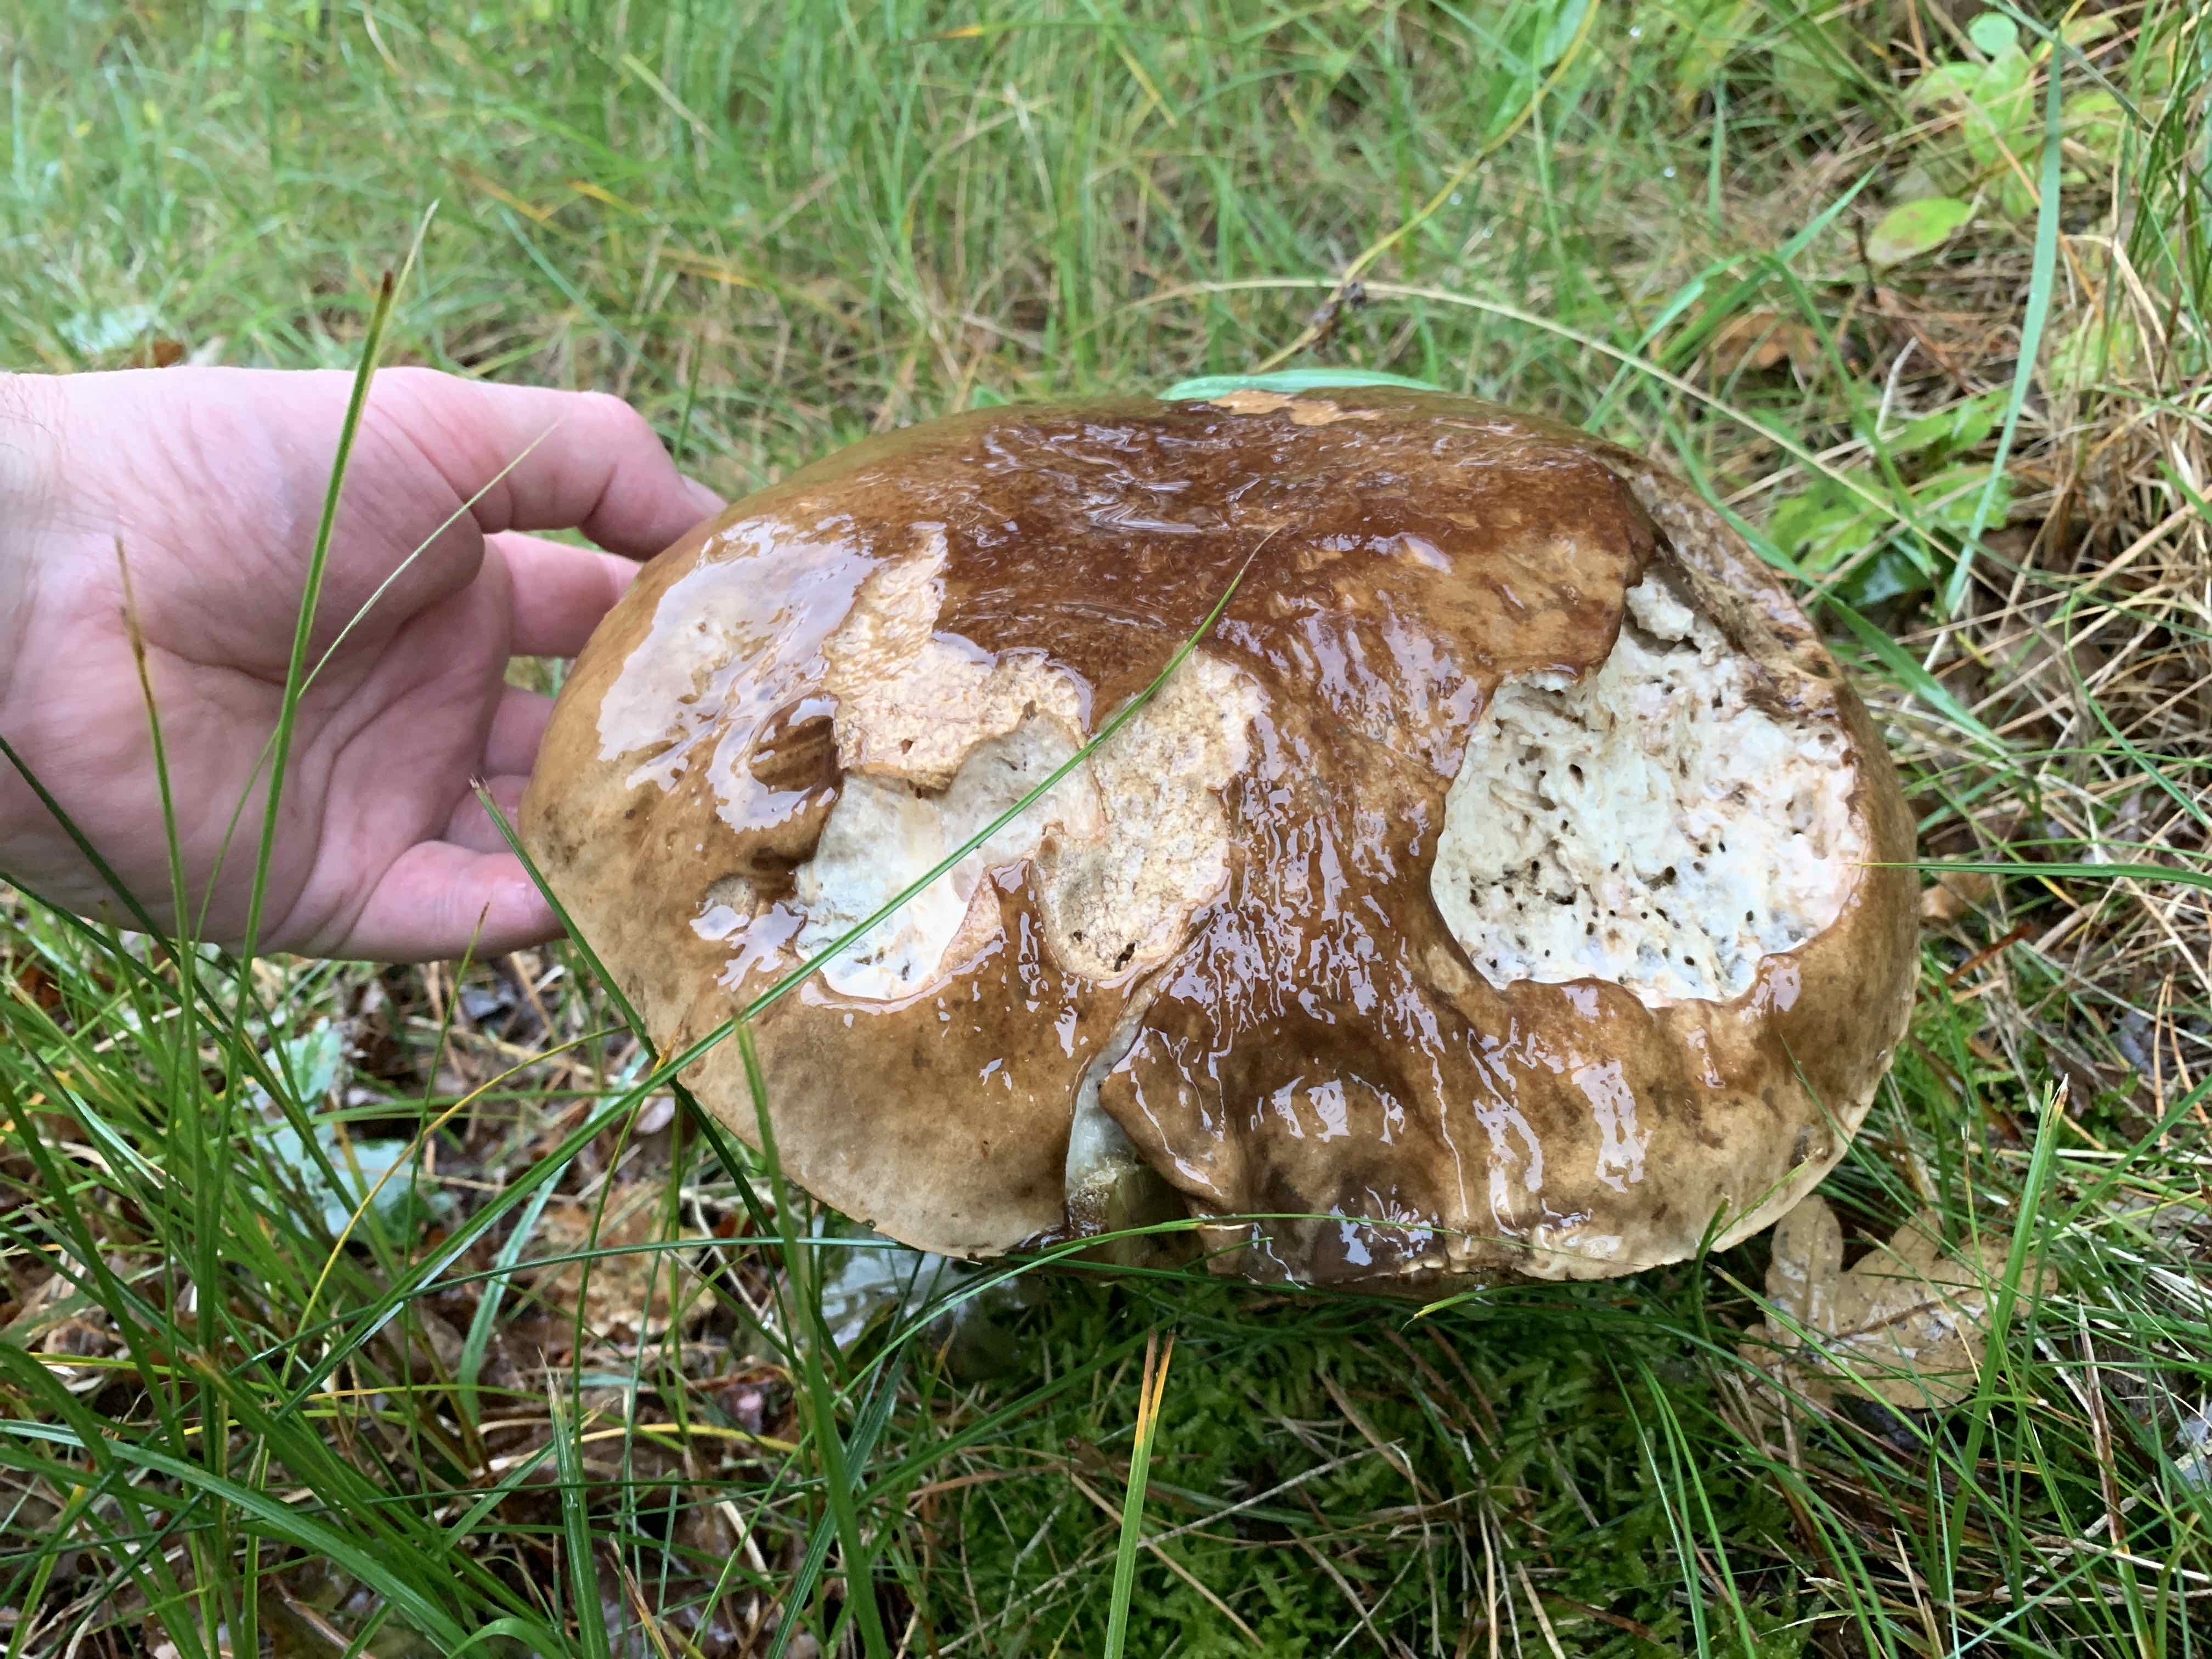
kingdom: Fungi
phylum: Basidiomycota
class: Agaricomycetes
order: Boletales
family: Boletaceae
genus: Boletus
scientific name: Boletus edulis
